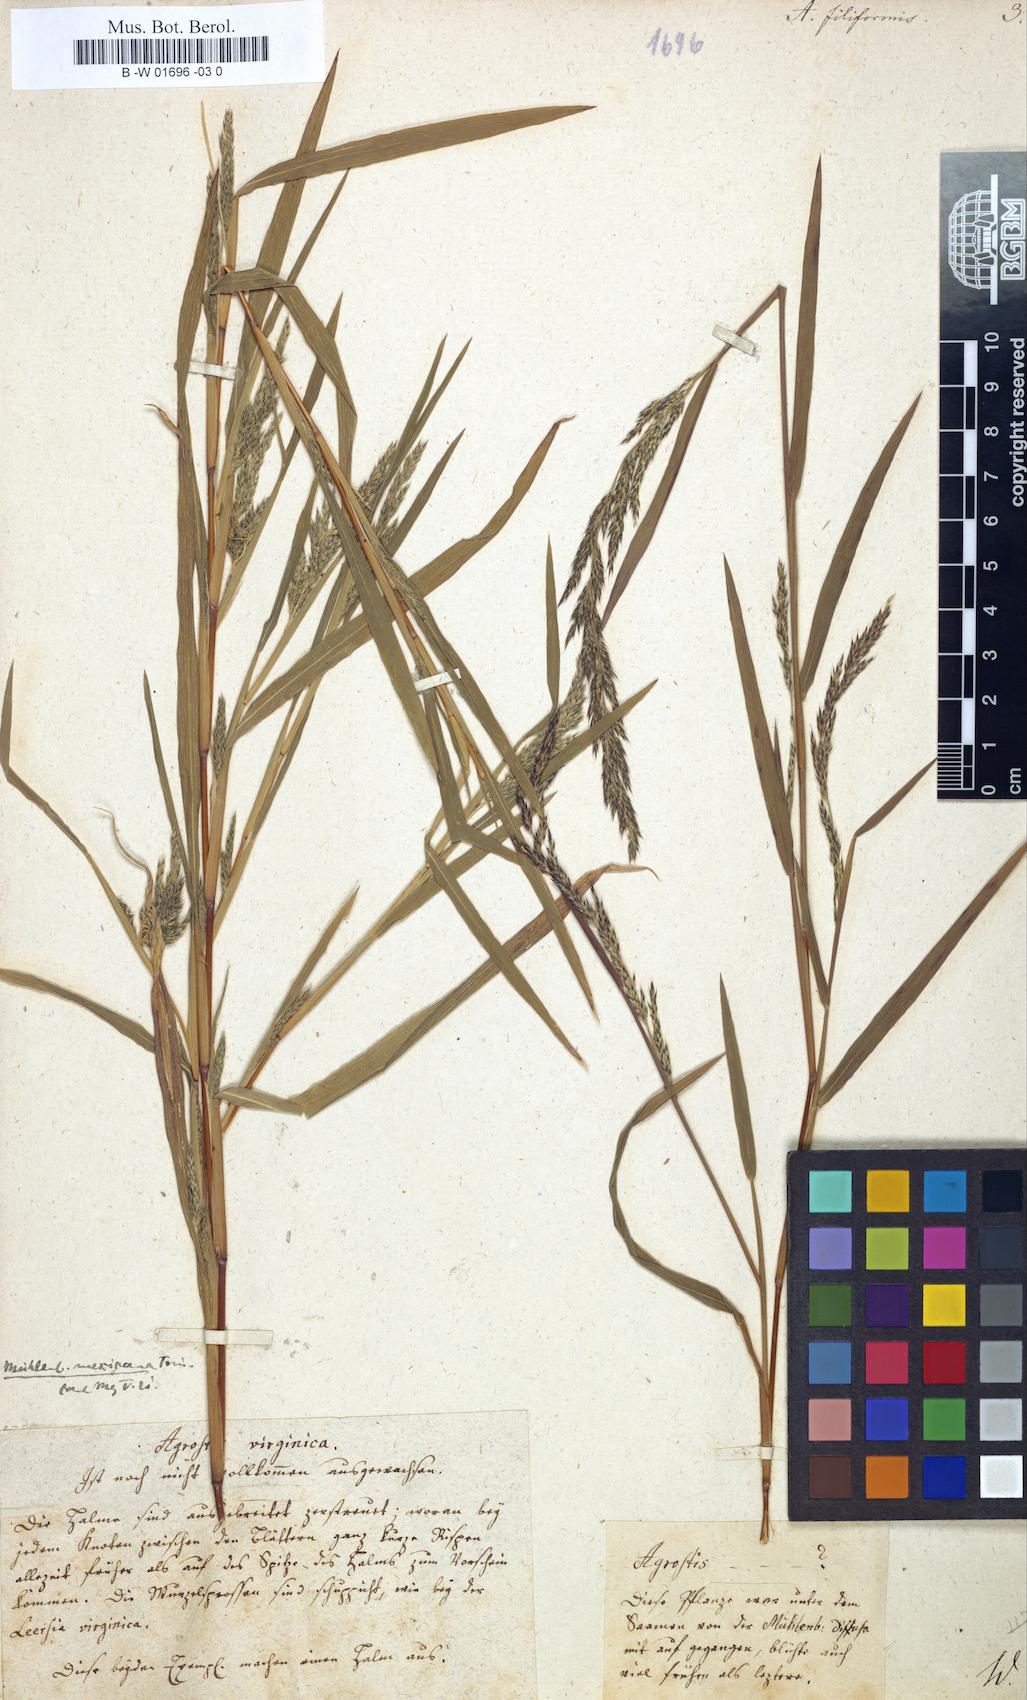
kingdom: Plantae
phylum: Tracheophyta
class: Liliopsida
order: Poales
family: Poaceae
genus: Apera
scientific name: Apera spica-venti
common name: Loose silky-bent
